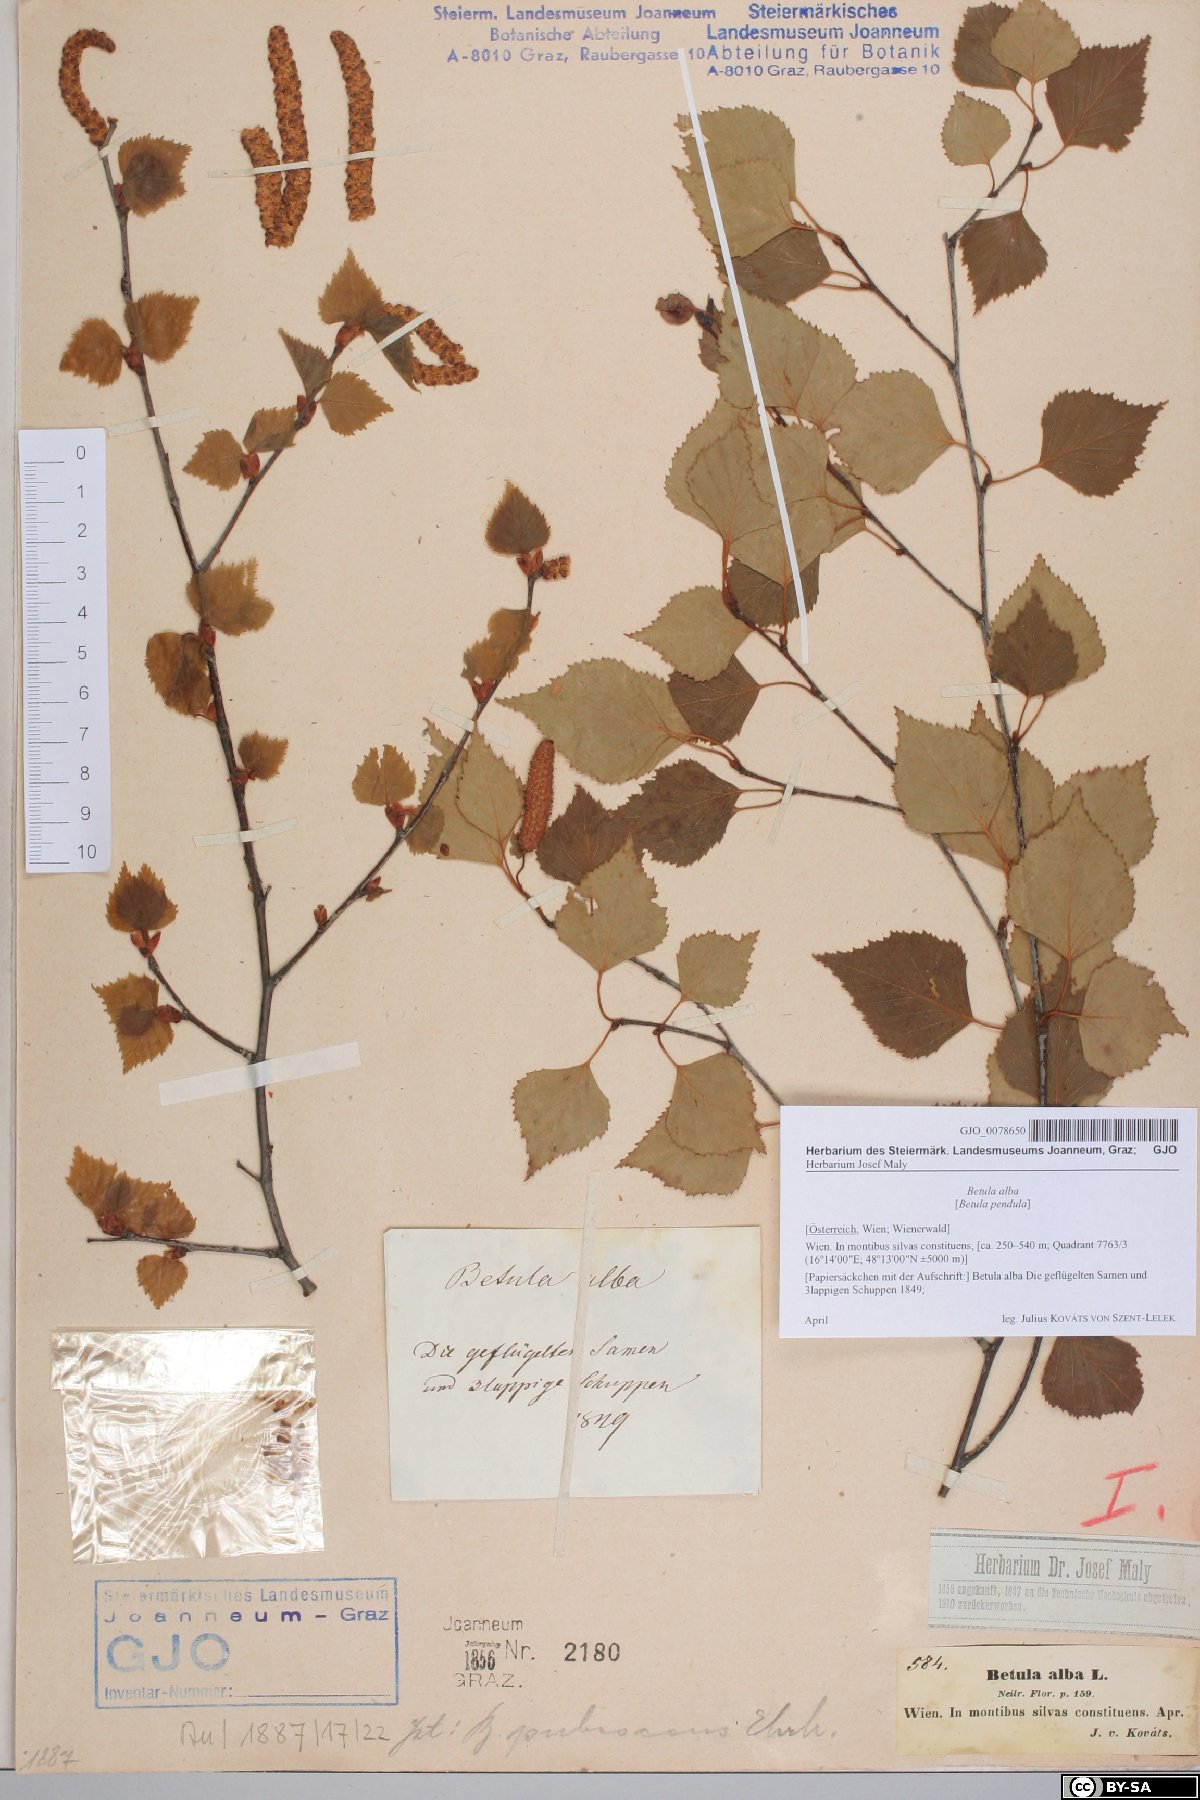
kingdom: Plantae
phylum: Tracheophyta
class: Magnoliopsida
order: Fagales
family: Betulaceae
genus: Betula
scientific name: Betula pubescens
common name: Downy birch
